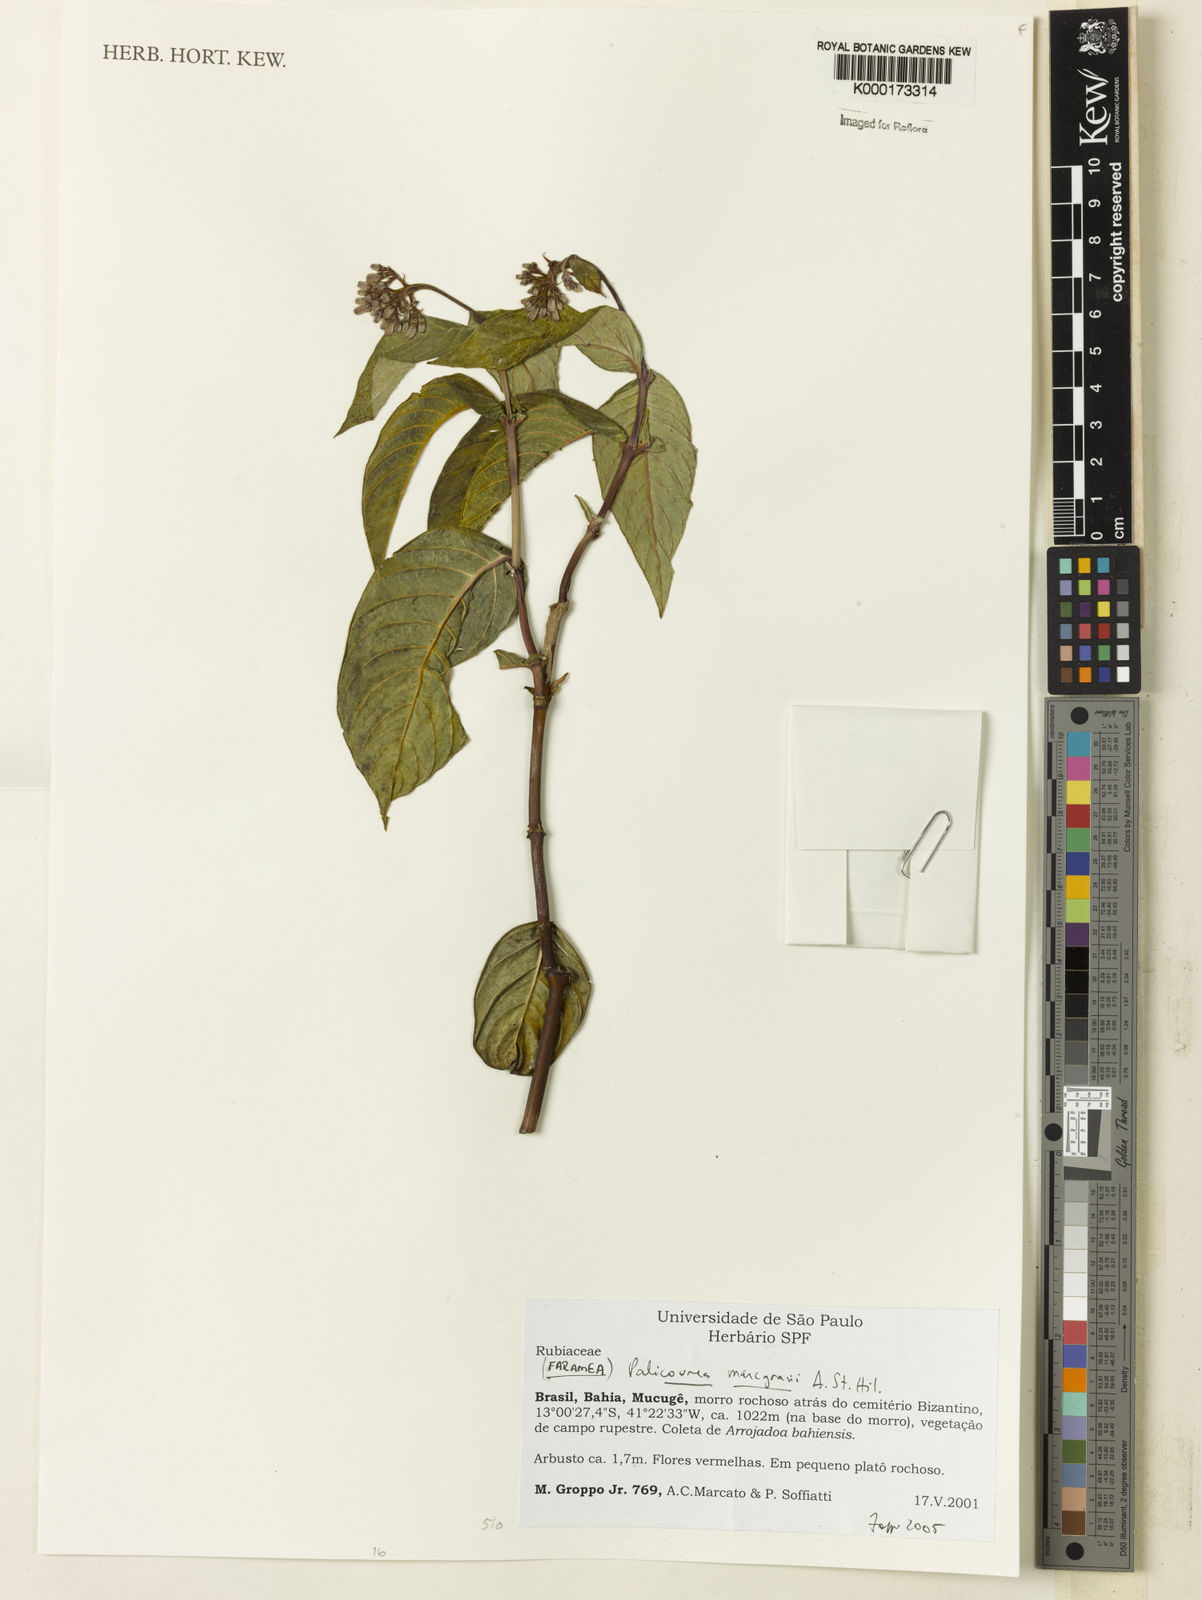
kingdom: Plantae
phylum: Tracheophyta
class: Magnoliopsida
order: Gentianales
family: Rubiaceae
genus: Palicourea
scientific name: Palicourea marcgravii
